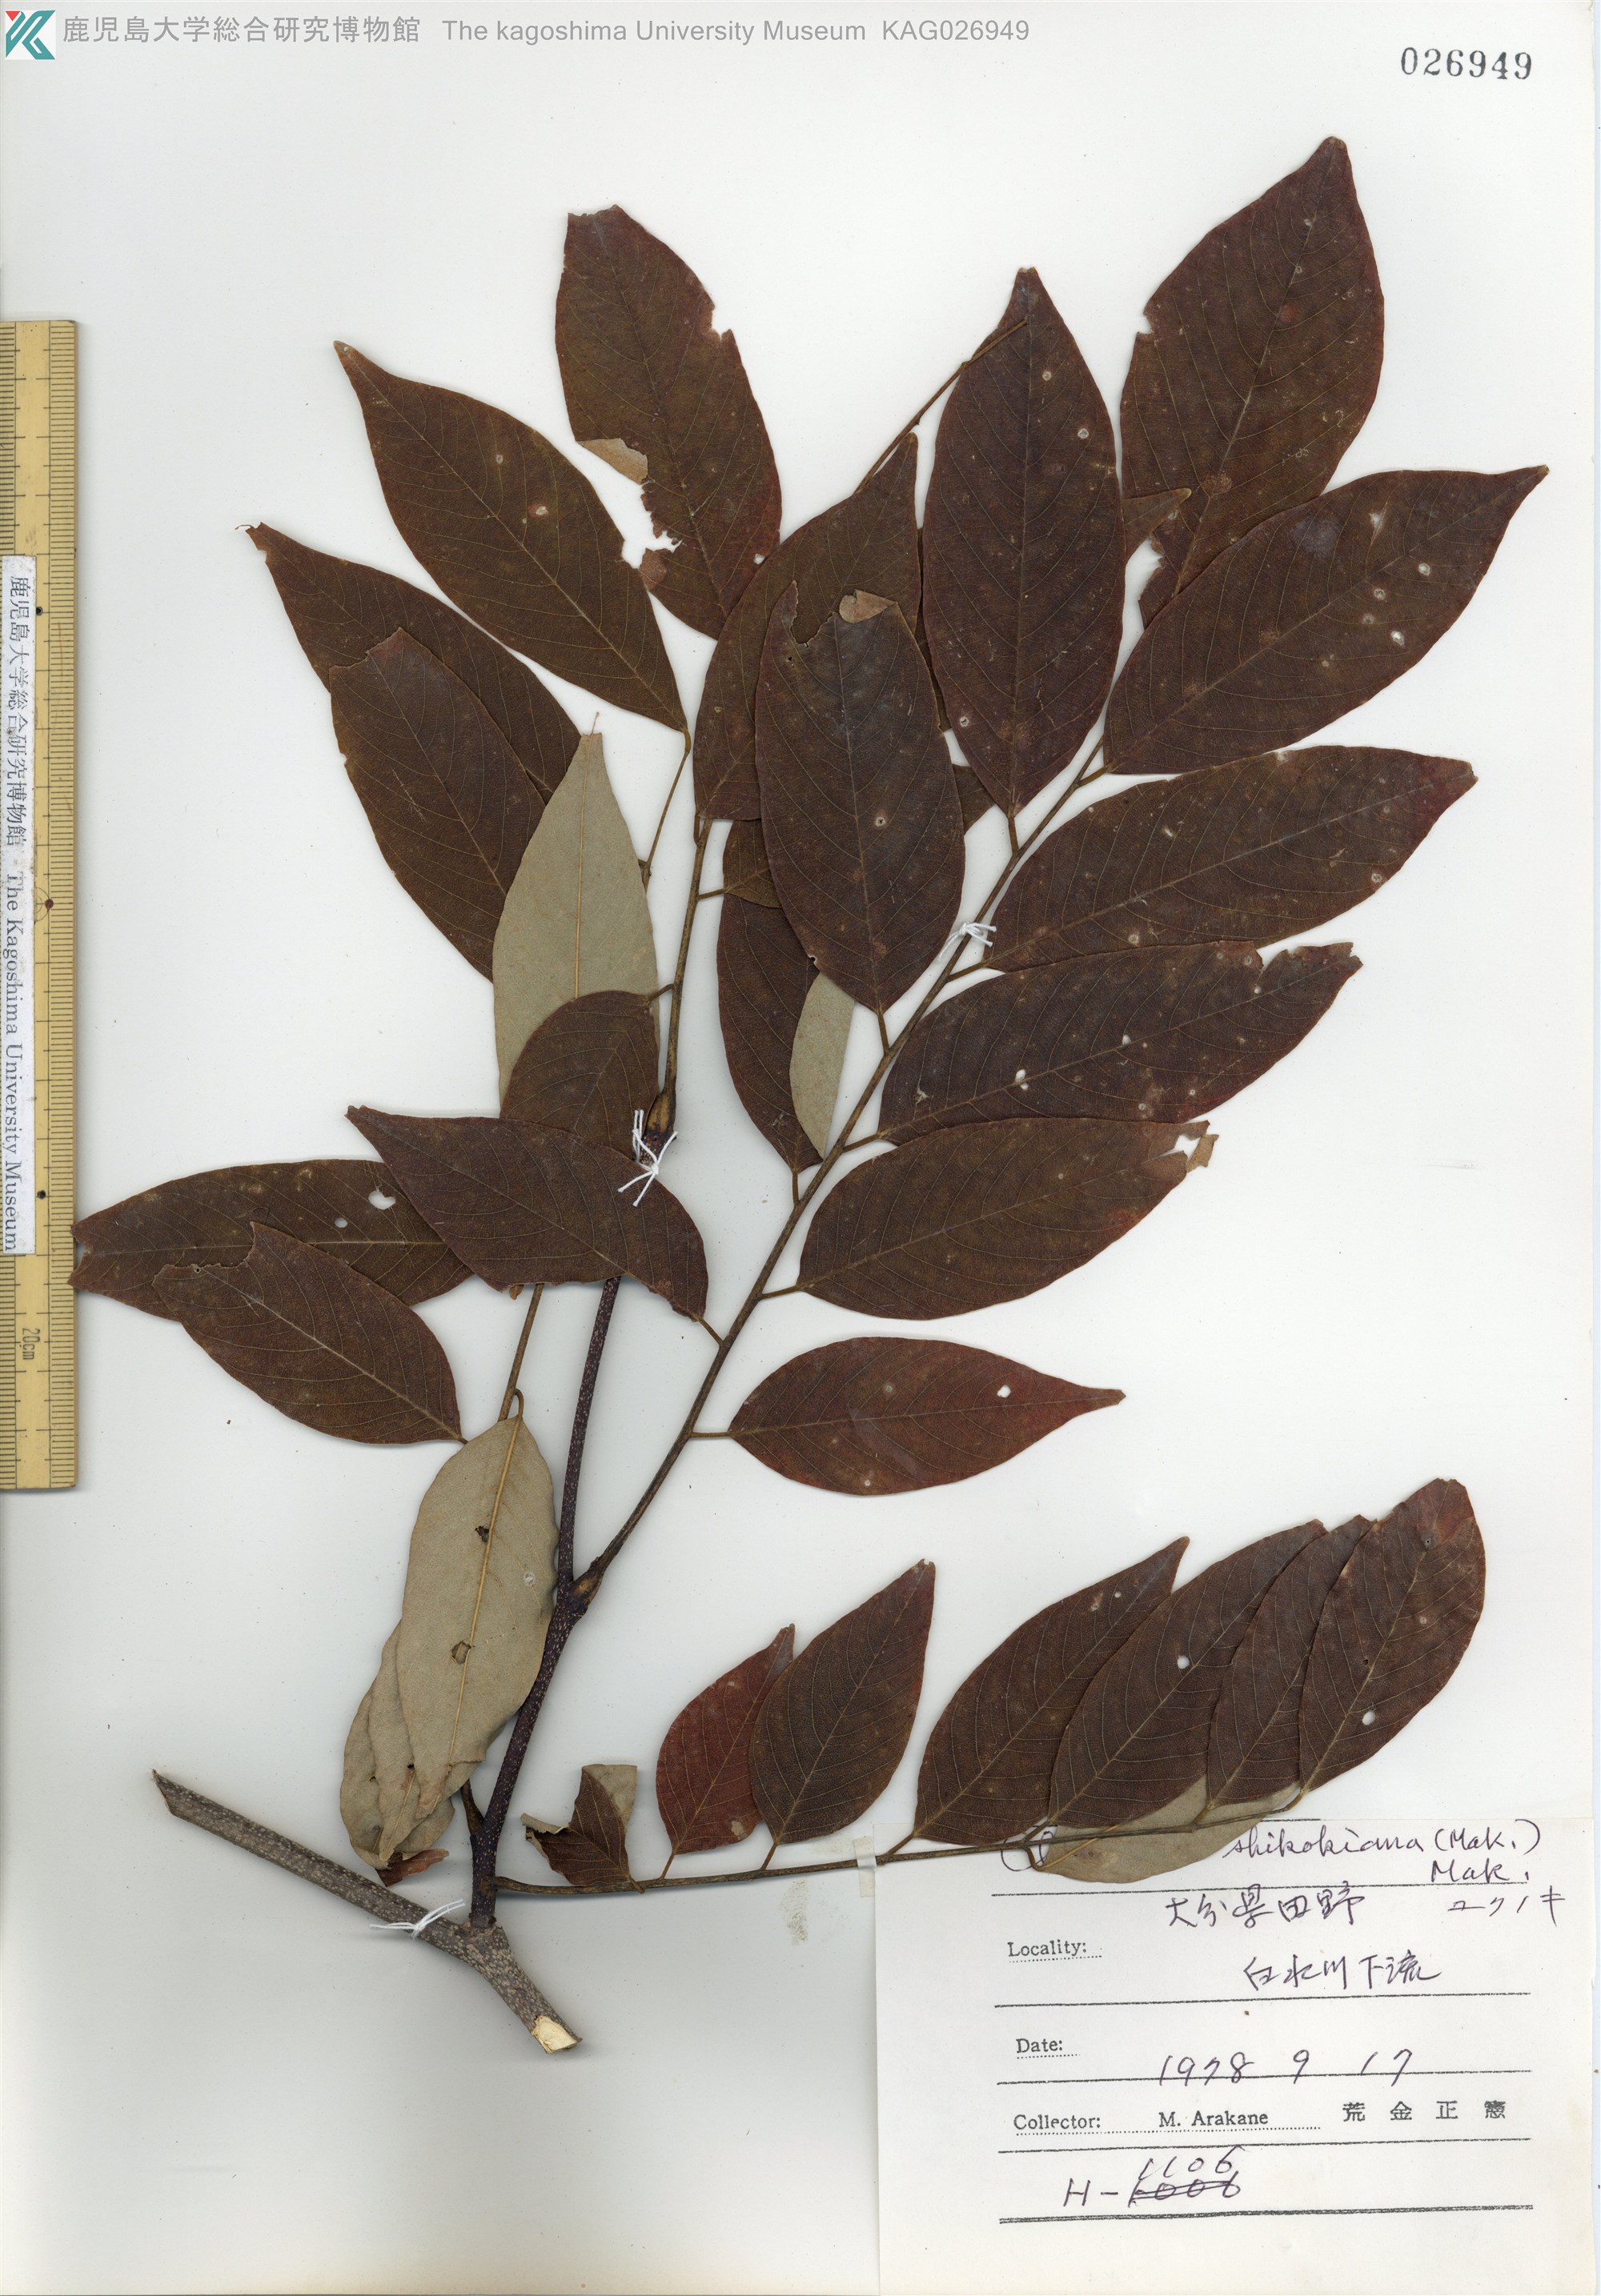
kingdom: Plantae
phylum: Tracheophyta
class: Magnoliopsida
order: Fabales
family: Fabaceae
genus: Cladrastis
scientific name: Cladrastis shikokiana
